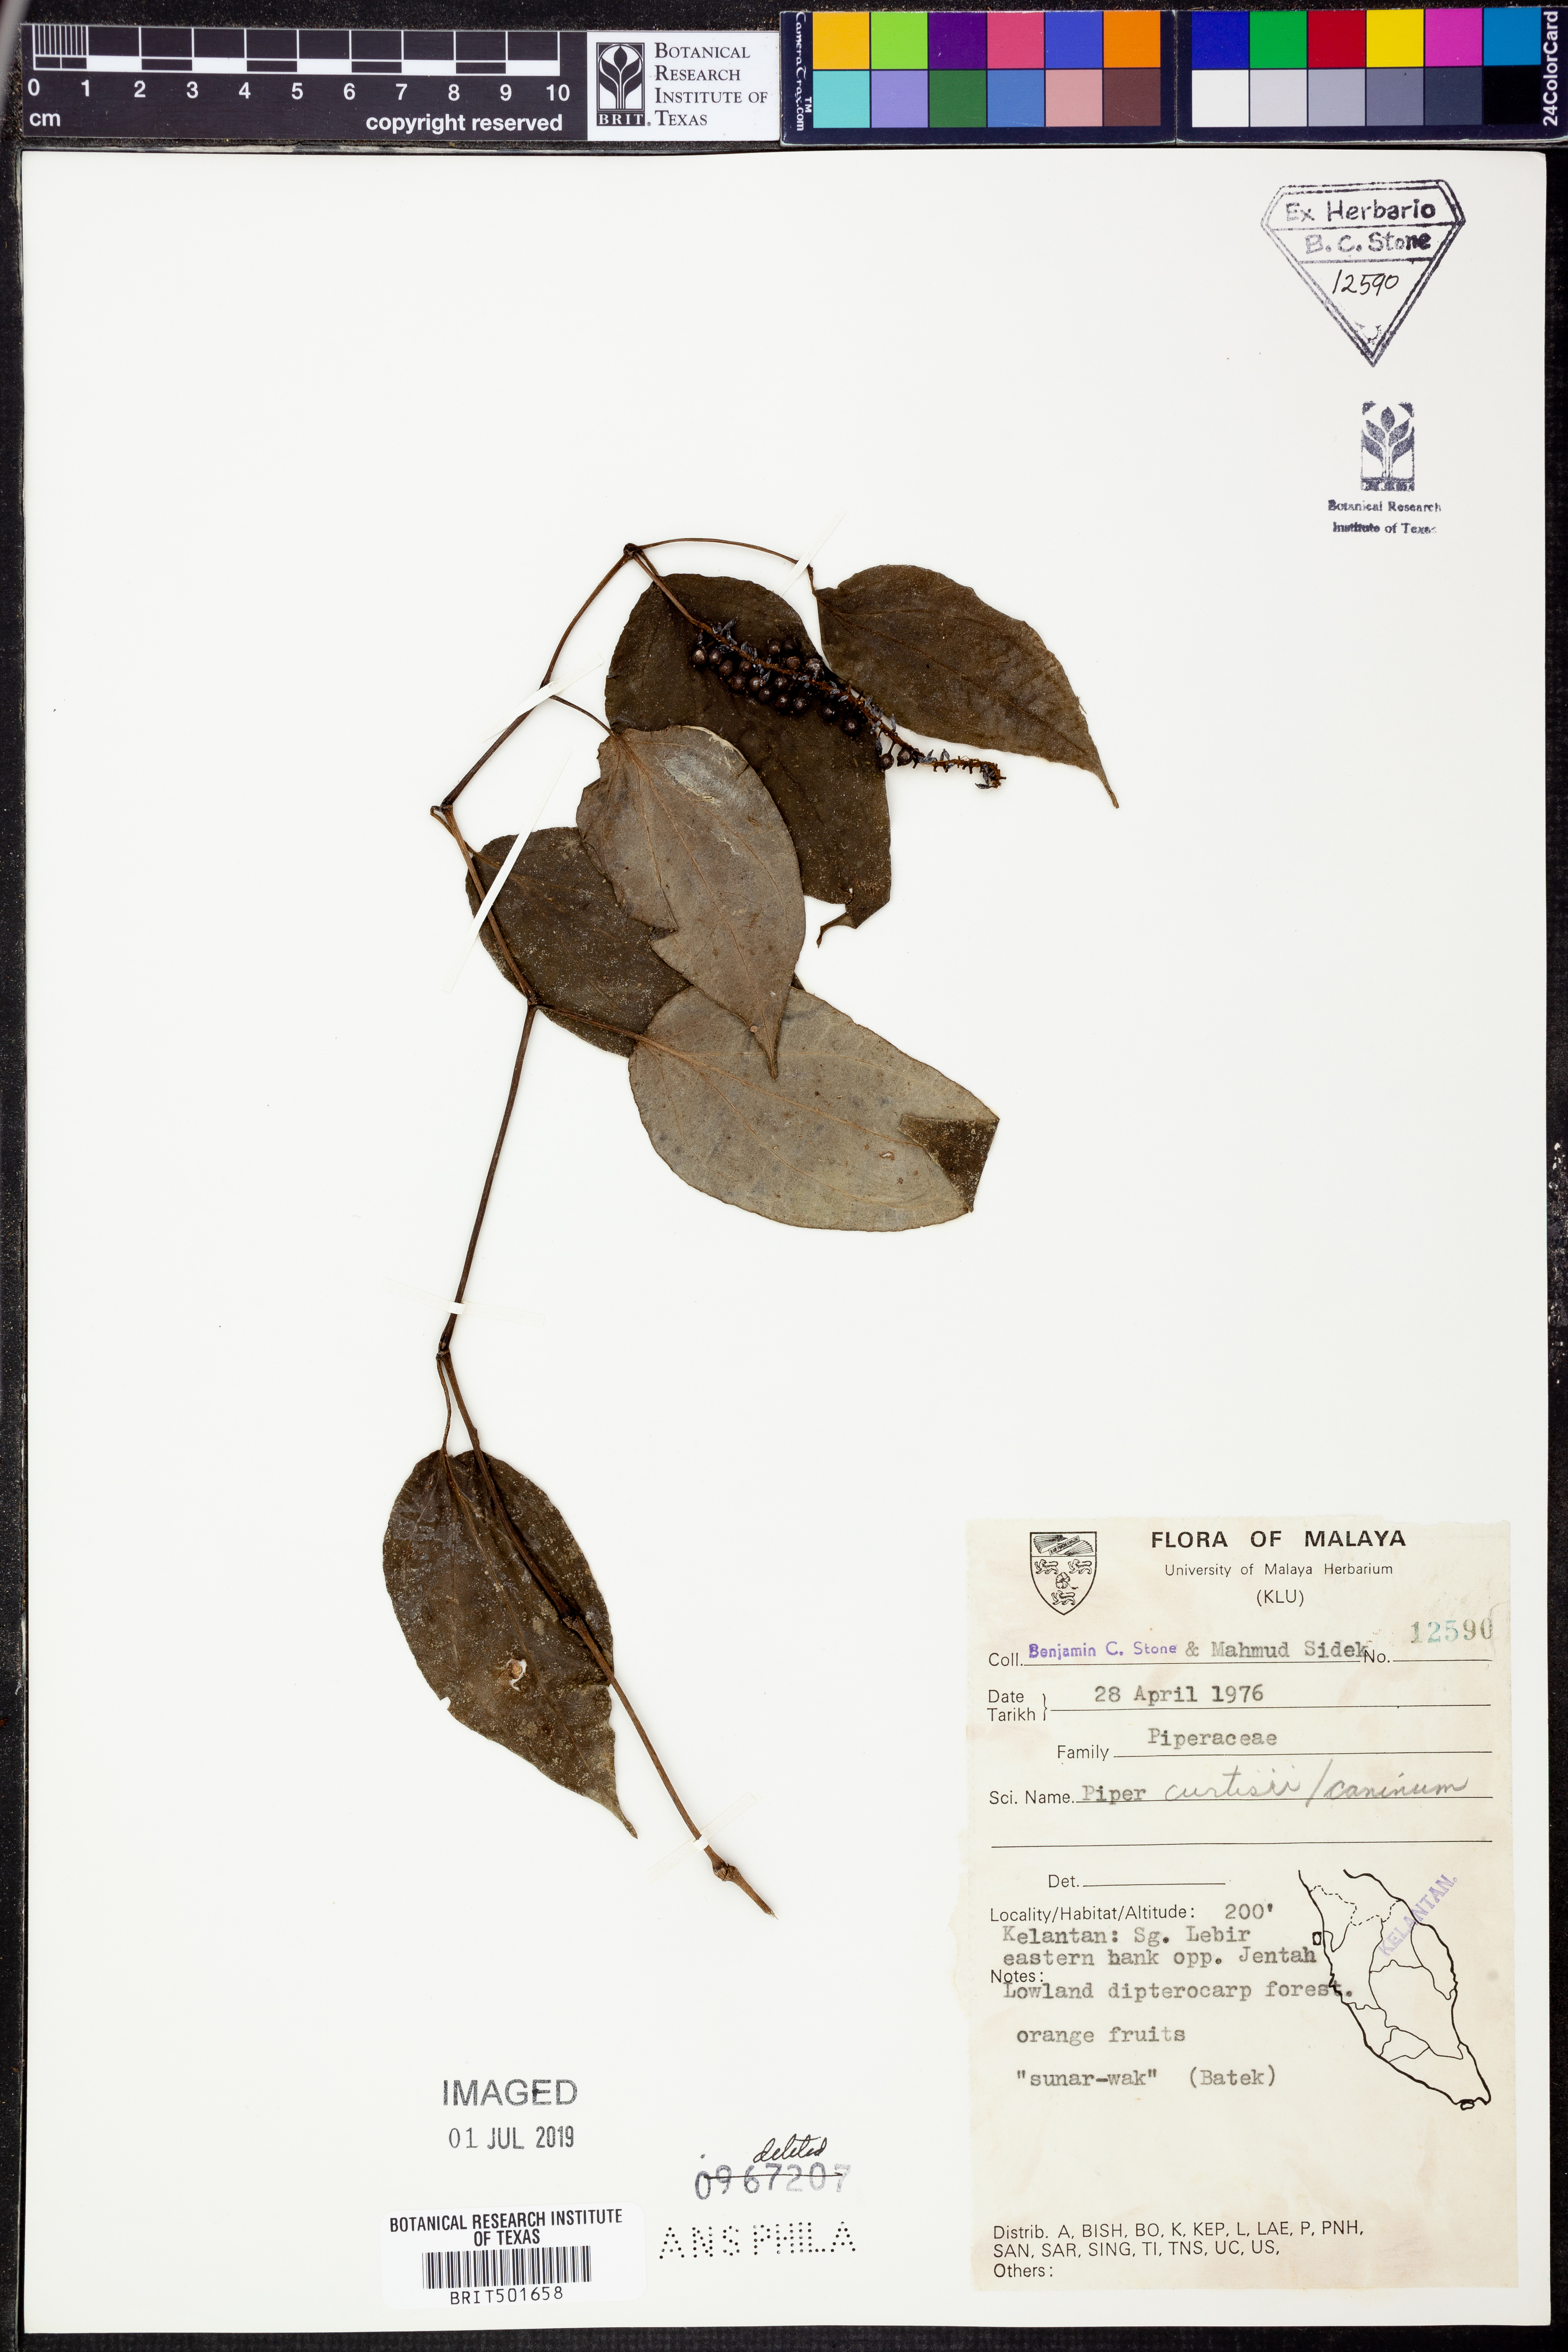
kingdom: Plantae
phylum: Tracheophyta
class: Magnoliopsida
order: Piperales
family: Piperaceae
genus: Piper
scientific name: Piper lanatum
